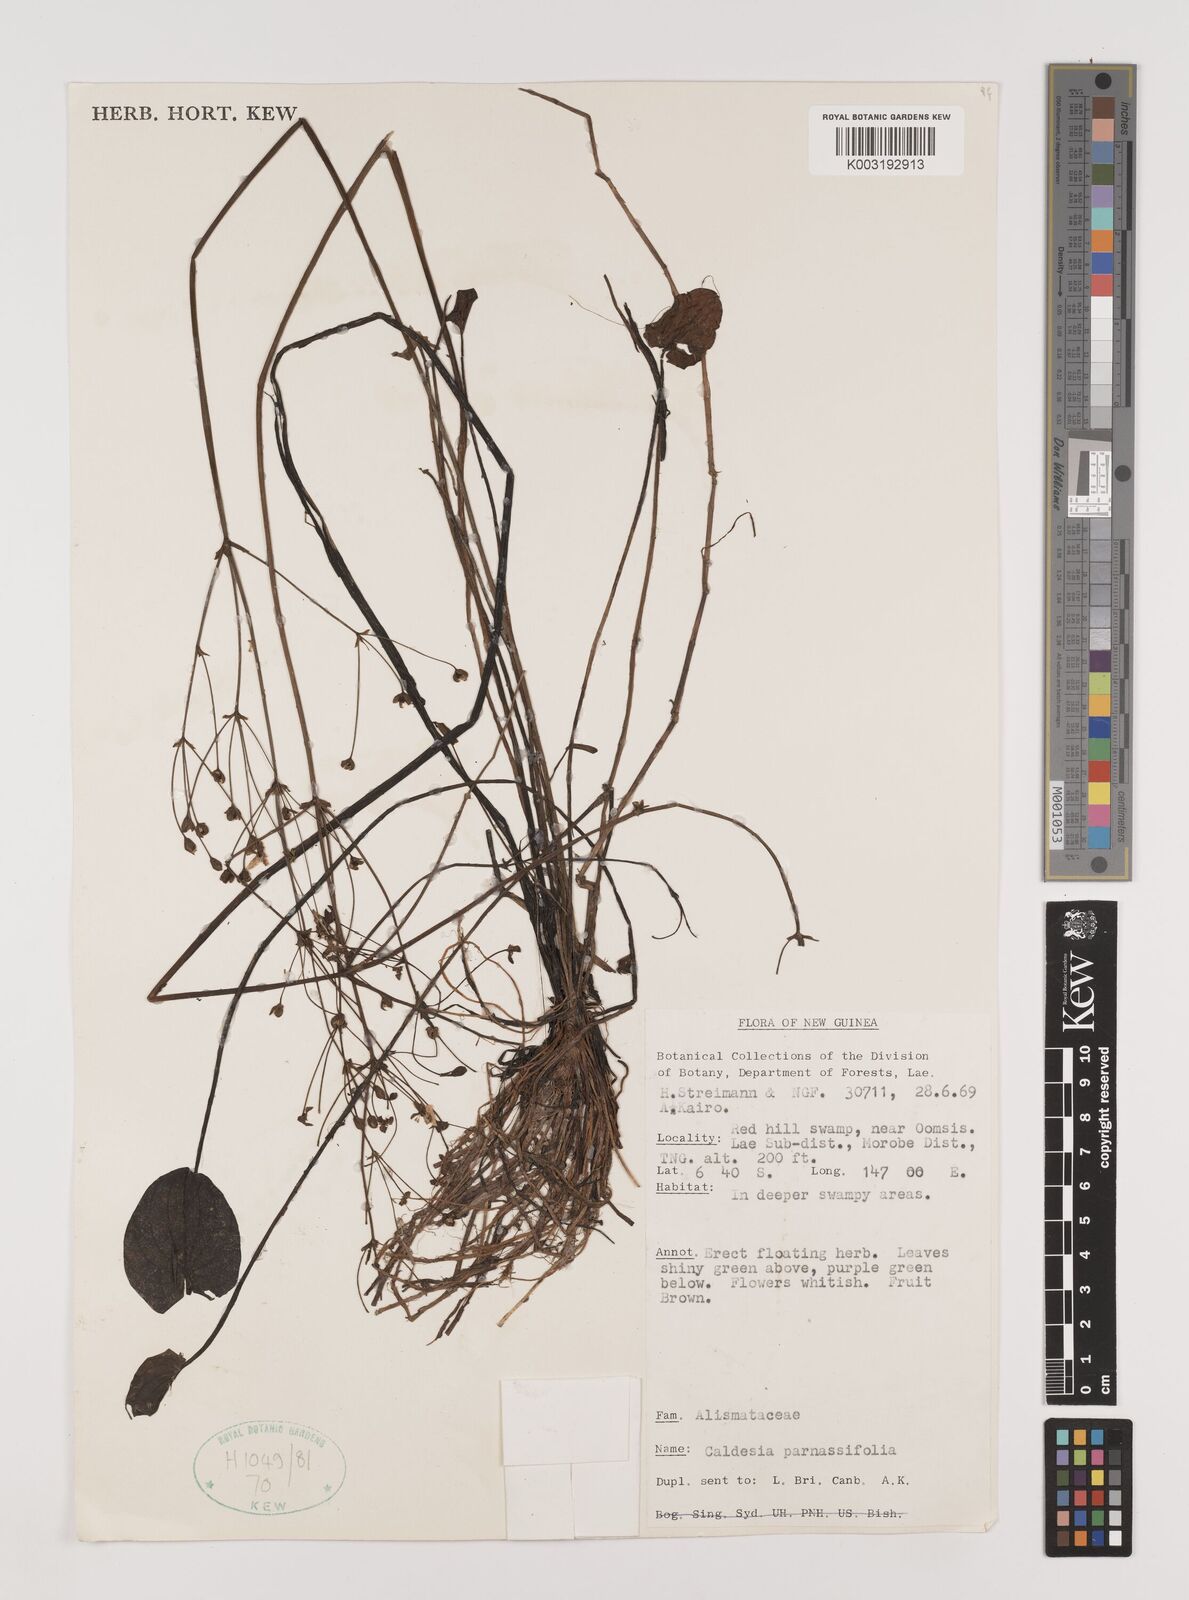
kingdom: Plantae
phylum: Tracheophyta
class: Liliopsida
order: Alismatales
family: Alismataceae
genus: Caldesia
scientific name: Caldesia parnassifolia
